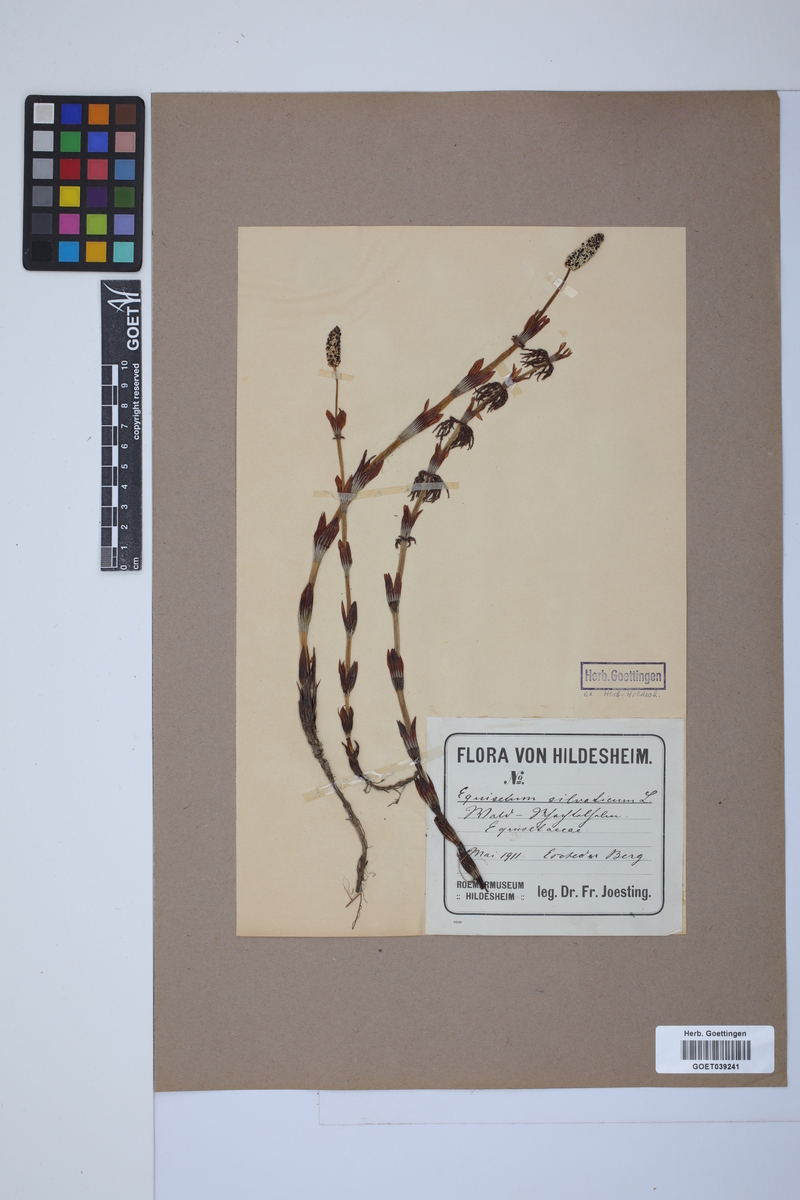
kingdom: Plantae
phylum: Tracheophyta
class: Polypodiopsida
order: Equisetales
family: Equisetaceae
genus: Equisetum
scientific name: Equisetum sylvaticum
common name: Wood horsetail
